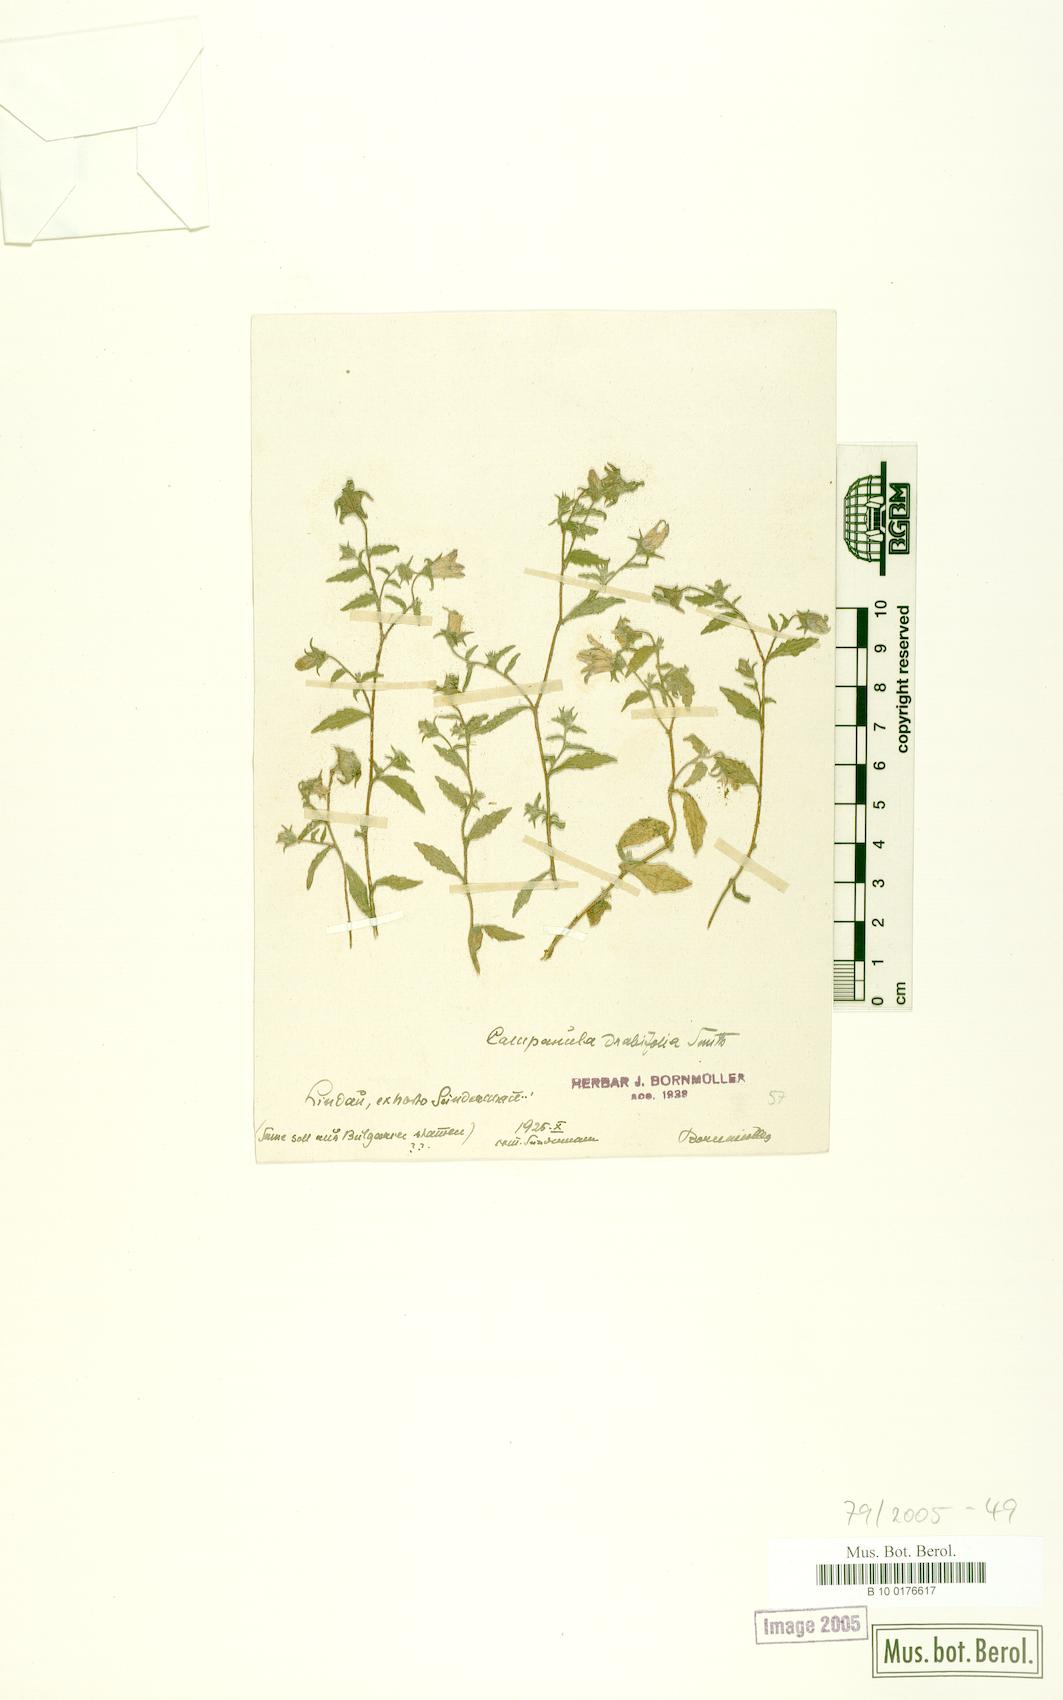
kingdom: Plantae
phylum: Tracheophyta
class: Magnoliopsida
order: Asterales
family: Campanulaceae
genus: Campanula
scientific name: Campanula drabifolia
